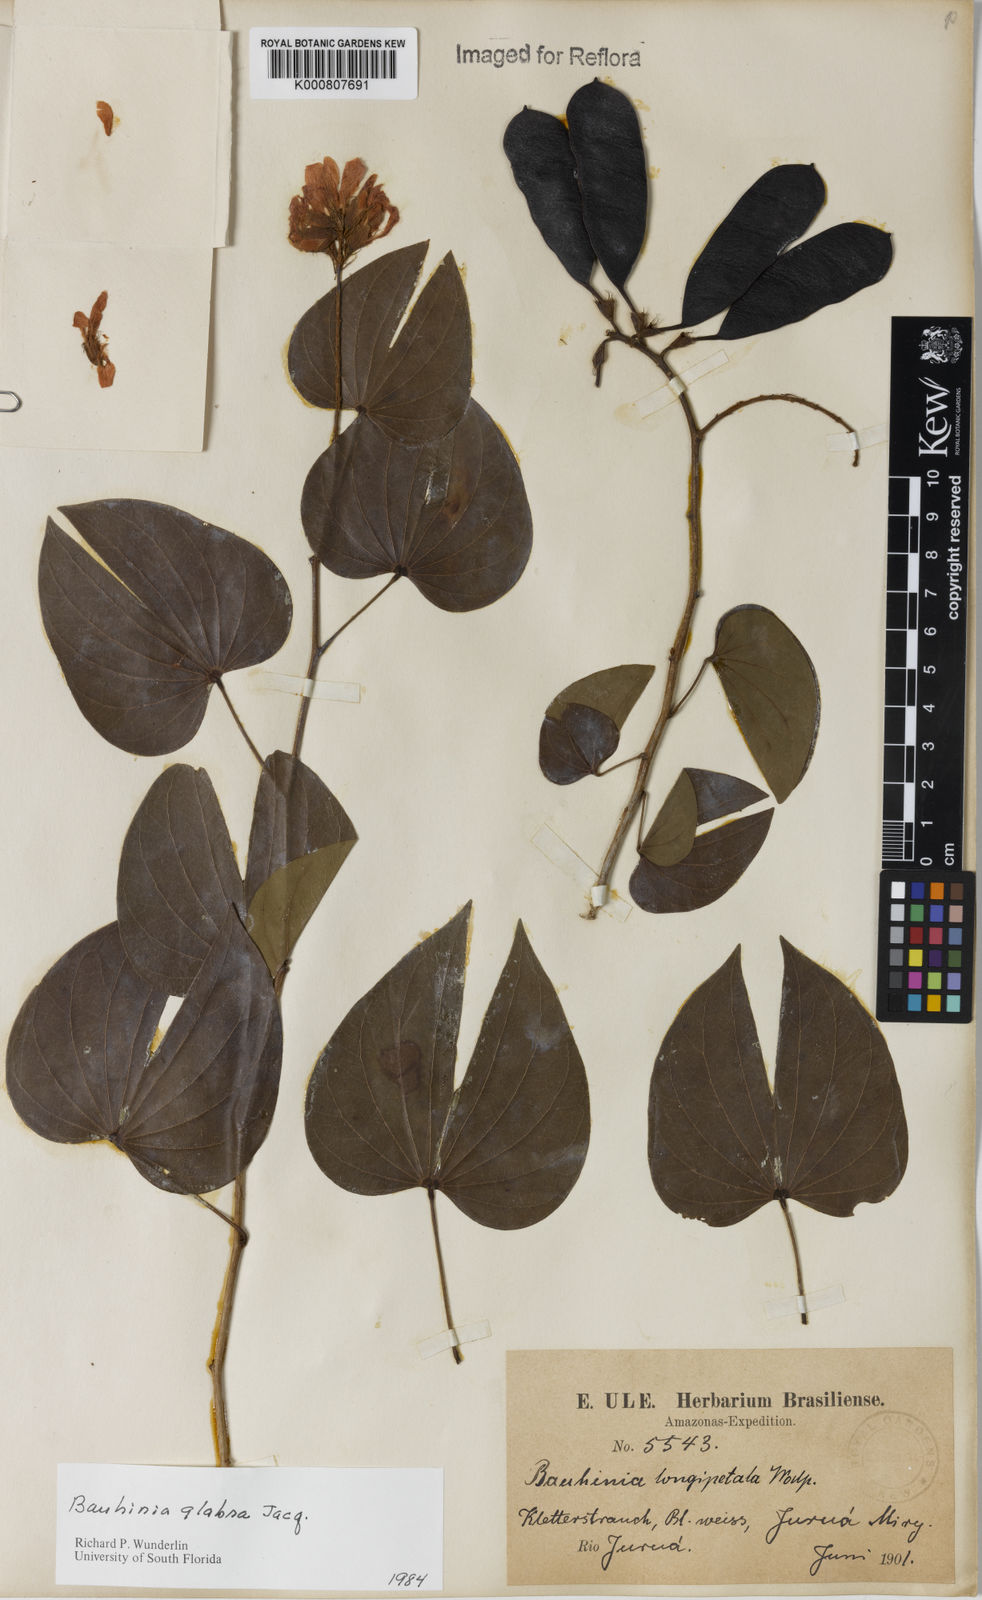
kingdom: Plantae
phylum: Tracheophyta
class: Magnoliopsida
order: Fabales
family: Fabaceae
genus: Schnella
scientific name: Schnella glabra
